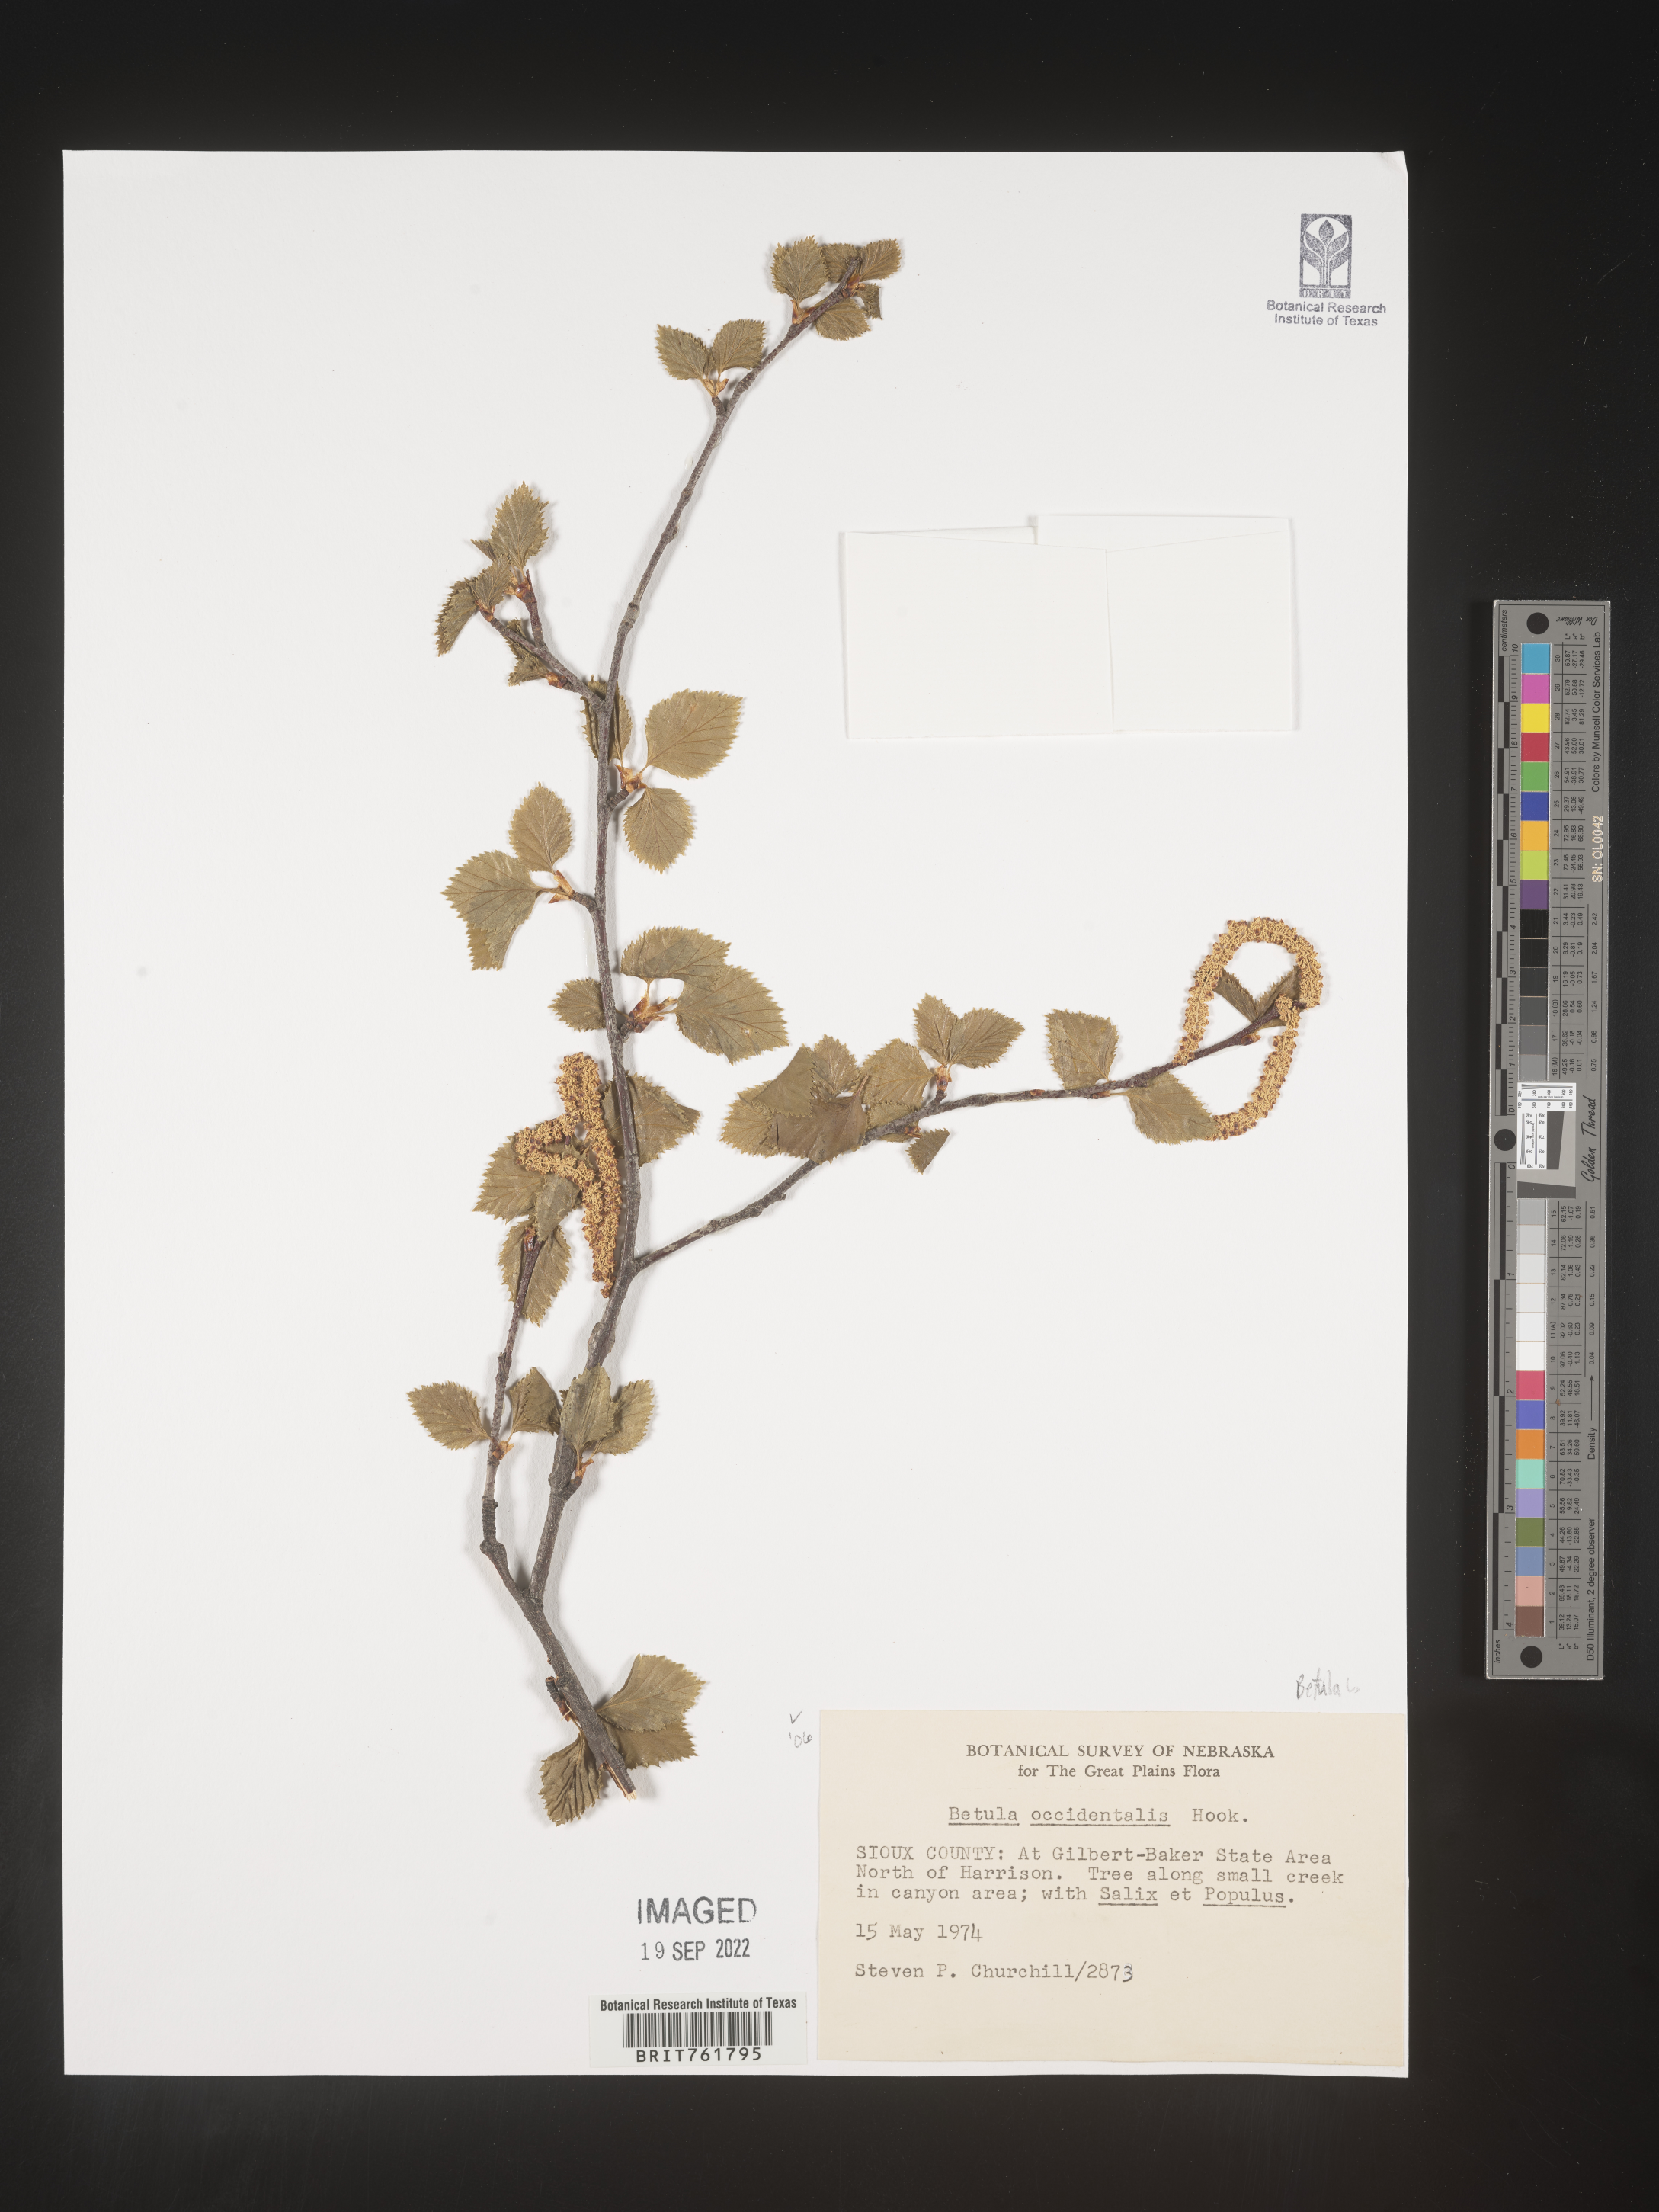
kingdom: Plantae
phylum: Tracheophyta
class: Magnoliopsida
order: Fagales
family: Betulaceae
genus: Betula
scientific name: Betula occidentalis
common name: River birch
